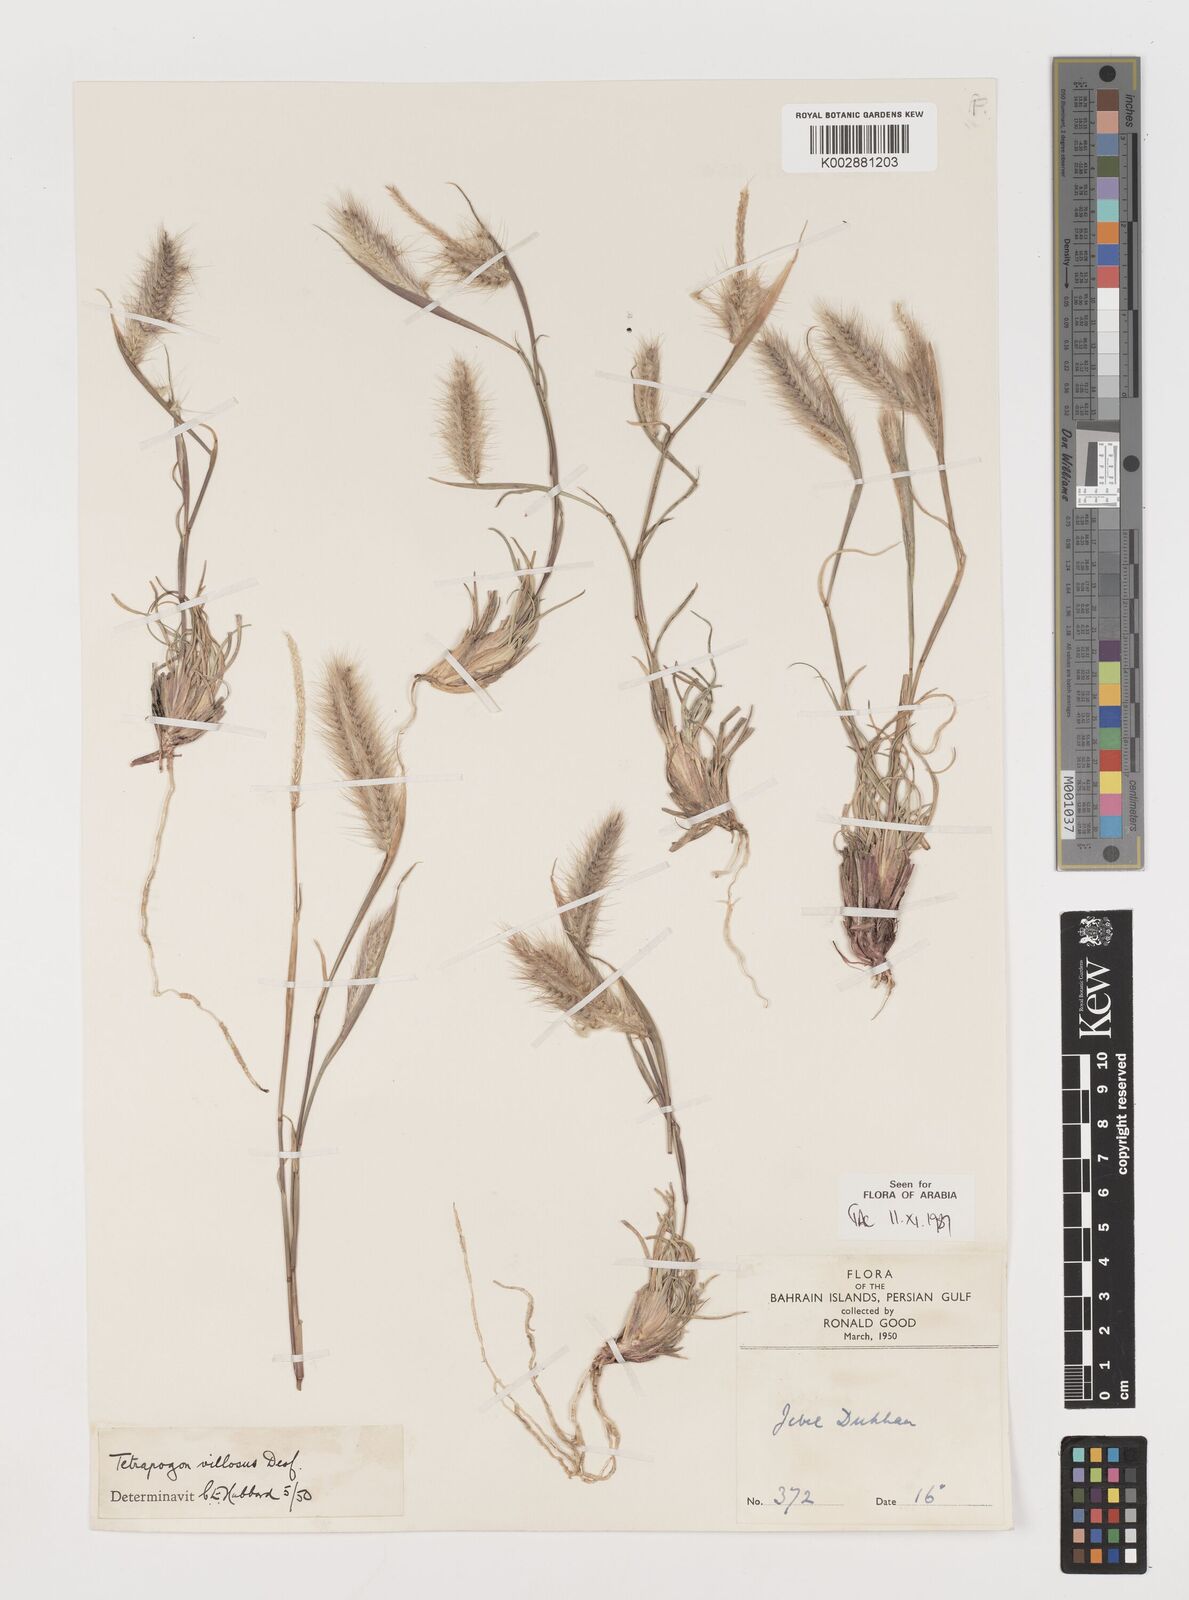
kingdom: Plantae
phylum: Tracheophyta
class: Liliopsida
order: Poales
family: Poaceae
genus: Tetrapogon
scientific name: Tetrapogon villosus
